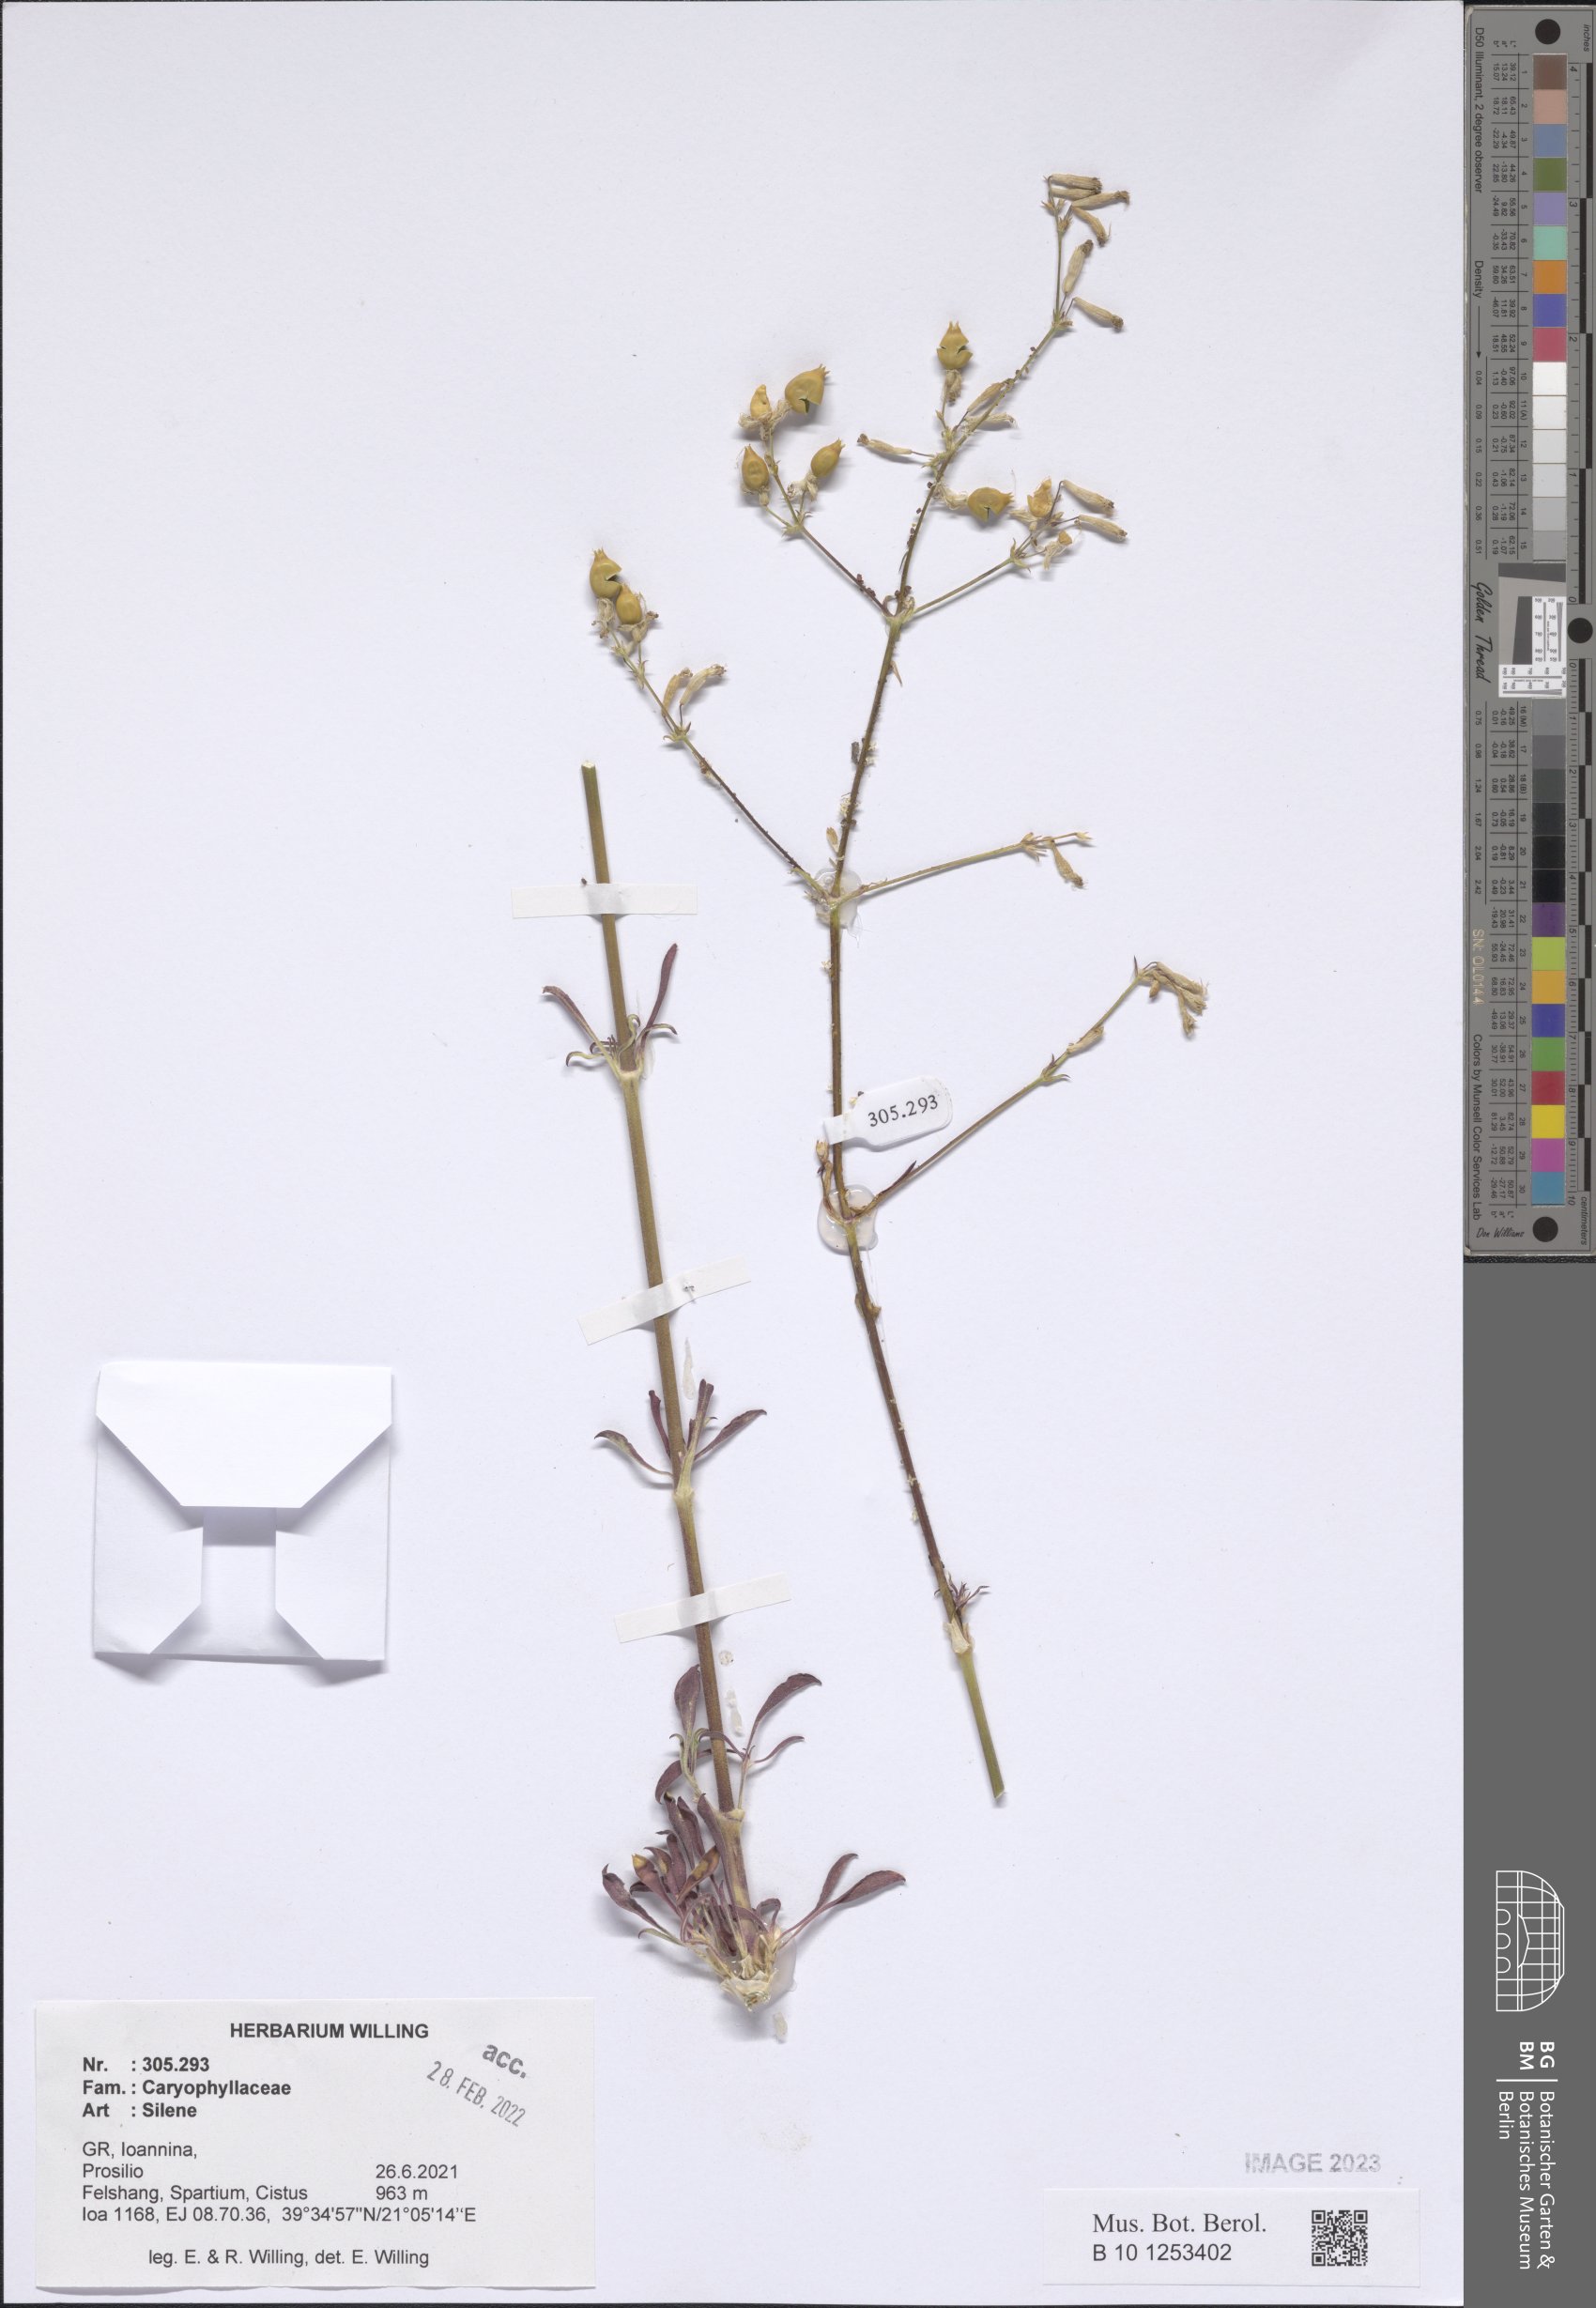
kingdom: Plantae
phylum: Tracheophyta
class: Magnoliopsida
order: Caryophyllales
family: Caryophyllaceae
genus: Silene
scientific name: Silene
